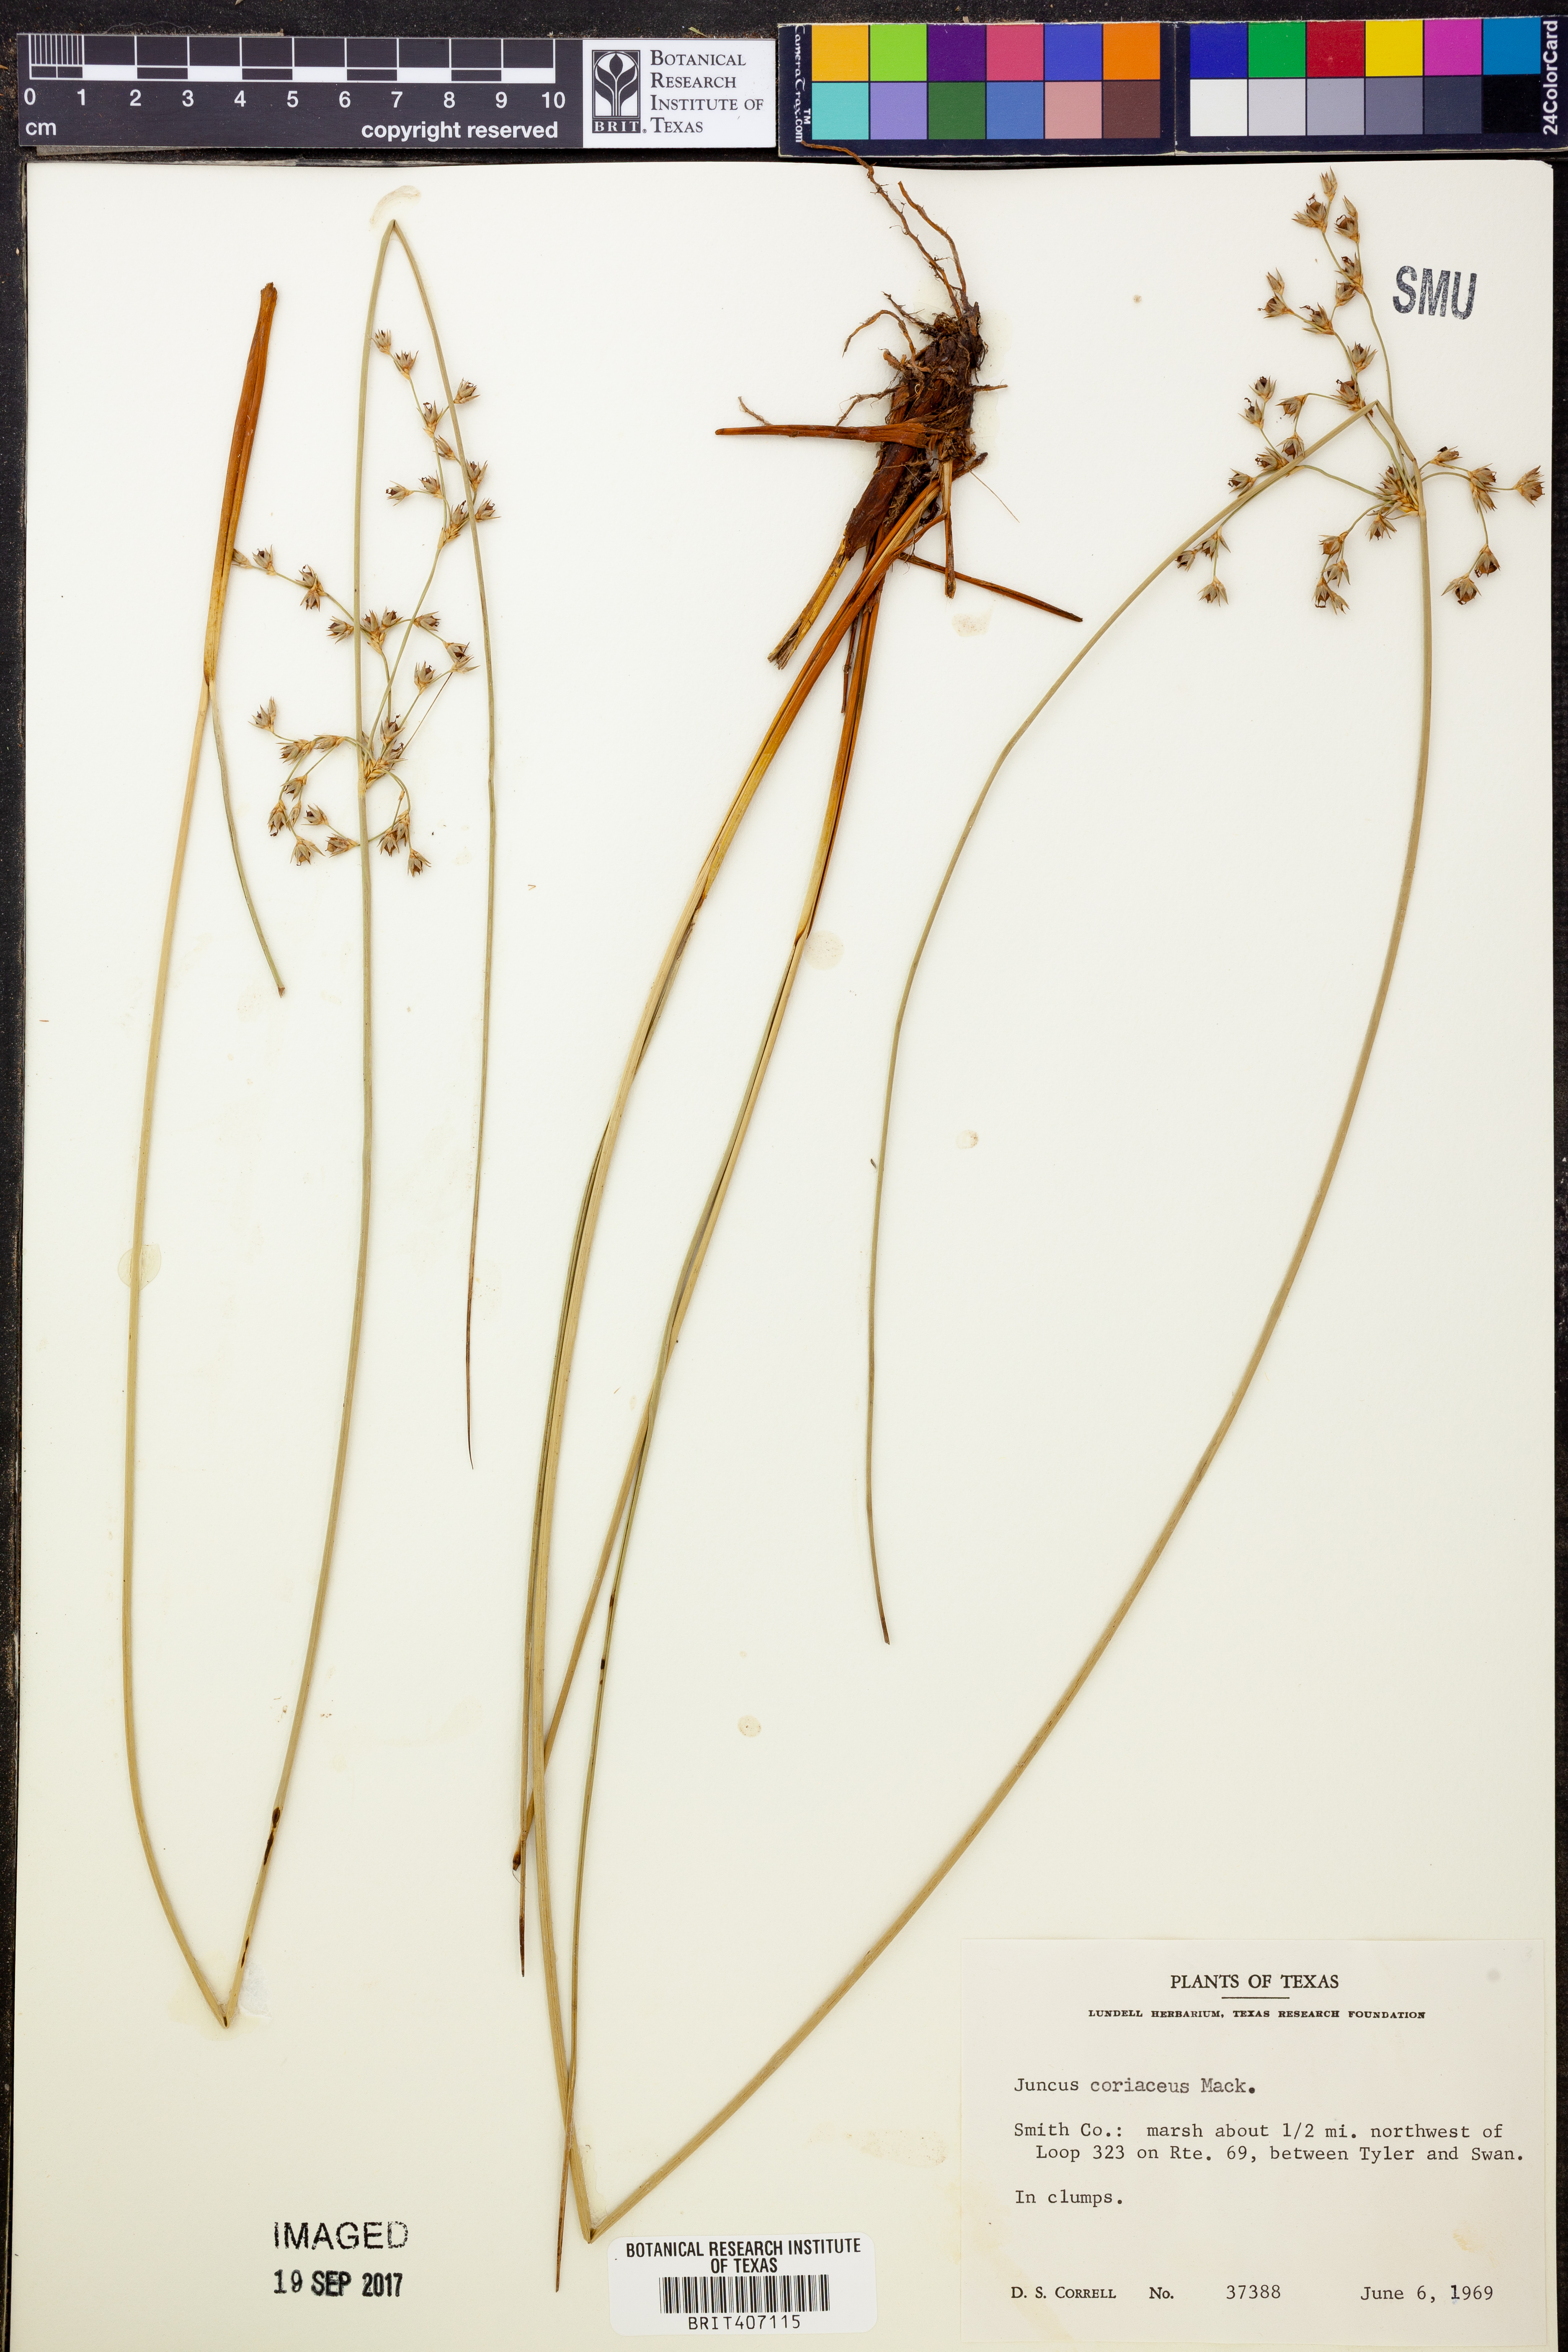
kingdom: Plantae
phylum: Tracheophyta
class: Liliopsida
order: Poales
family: Juncaceae
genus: Juncus
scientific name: Juncus coriaceus
